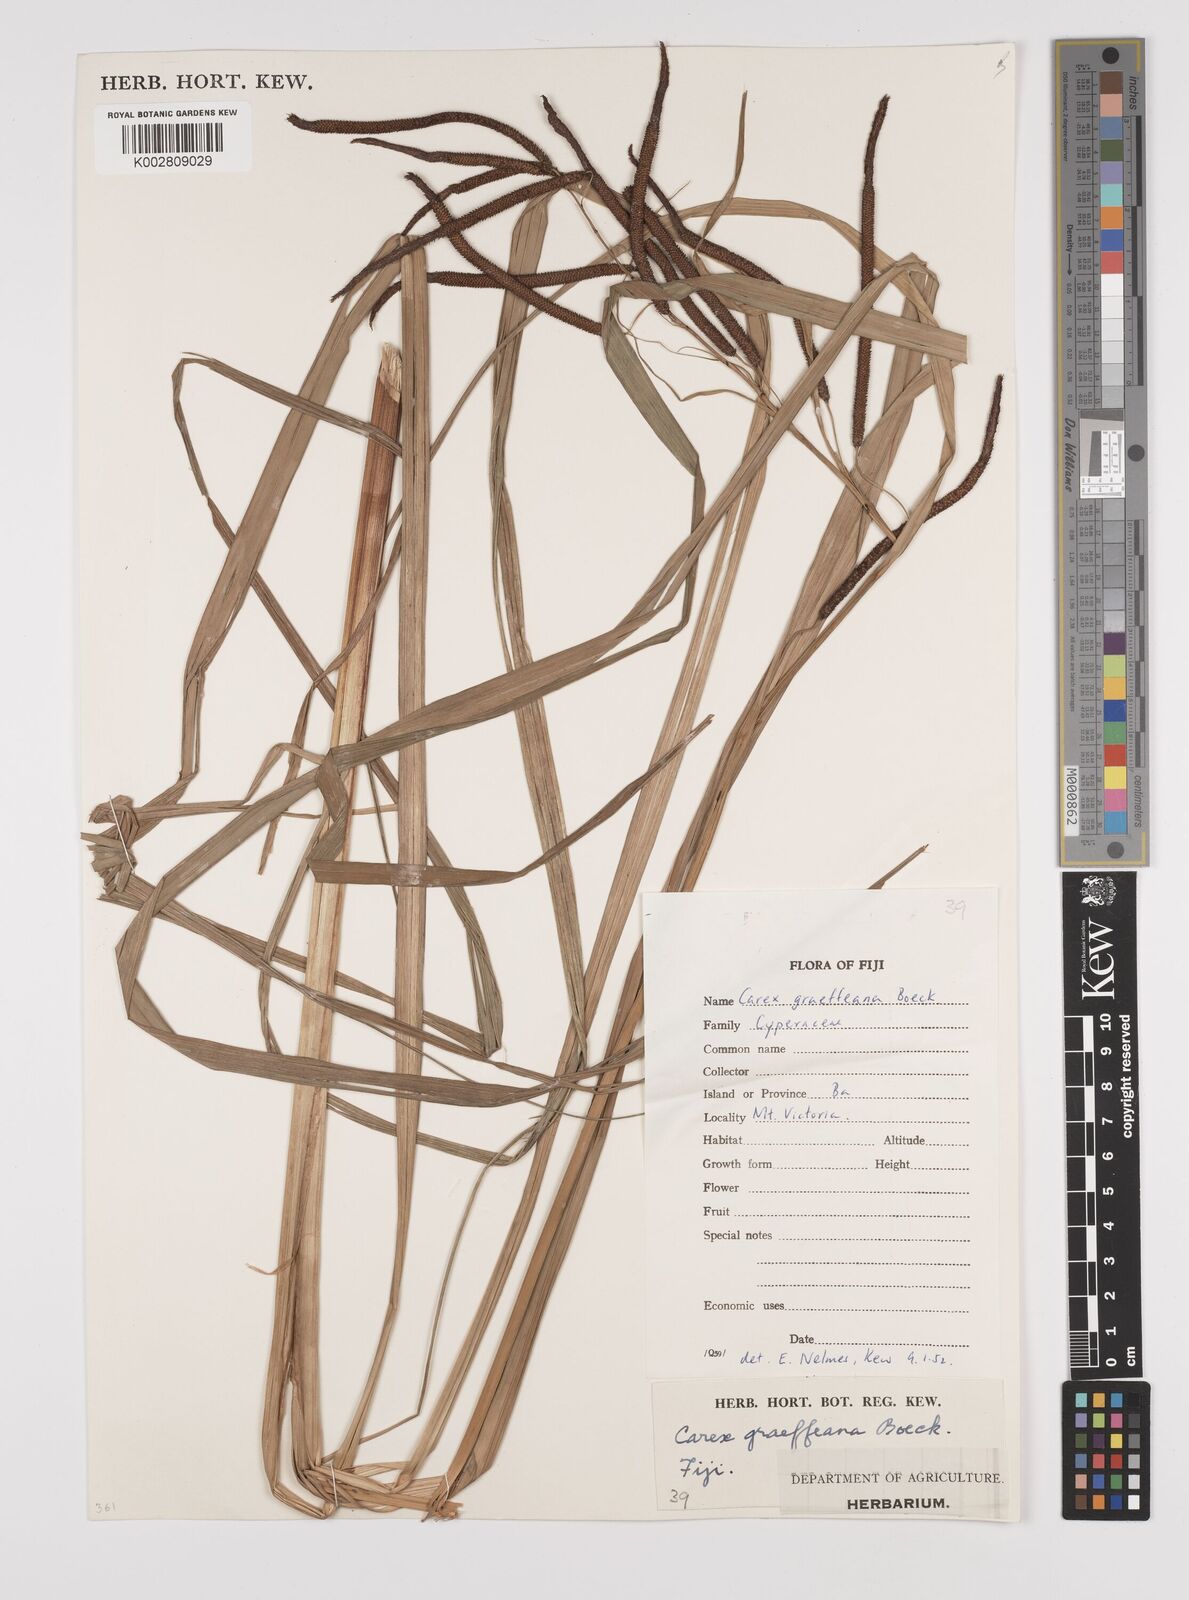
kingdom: Plantae
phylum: Tracheophyta
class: Liliopsida
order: Poales
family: Cyperaceae
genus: Carex
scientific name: Carex graeffeana
